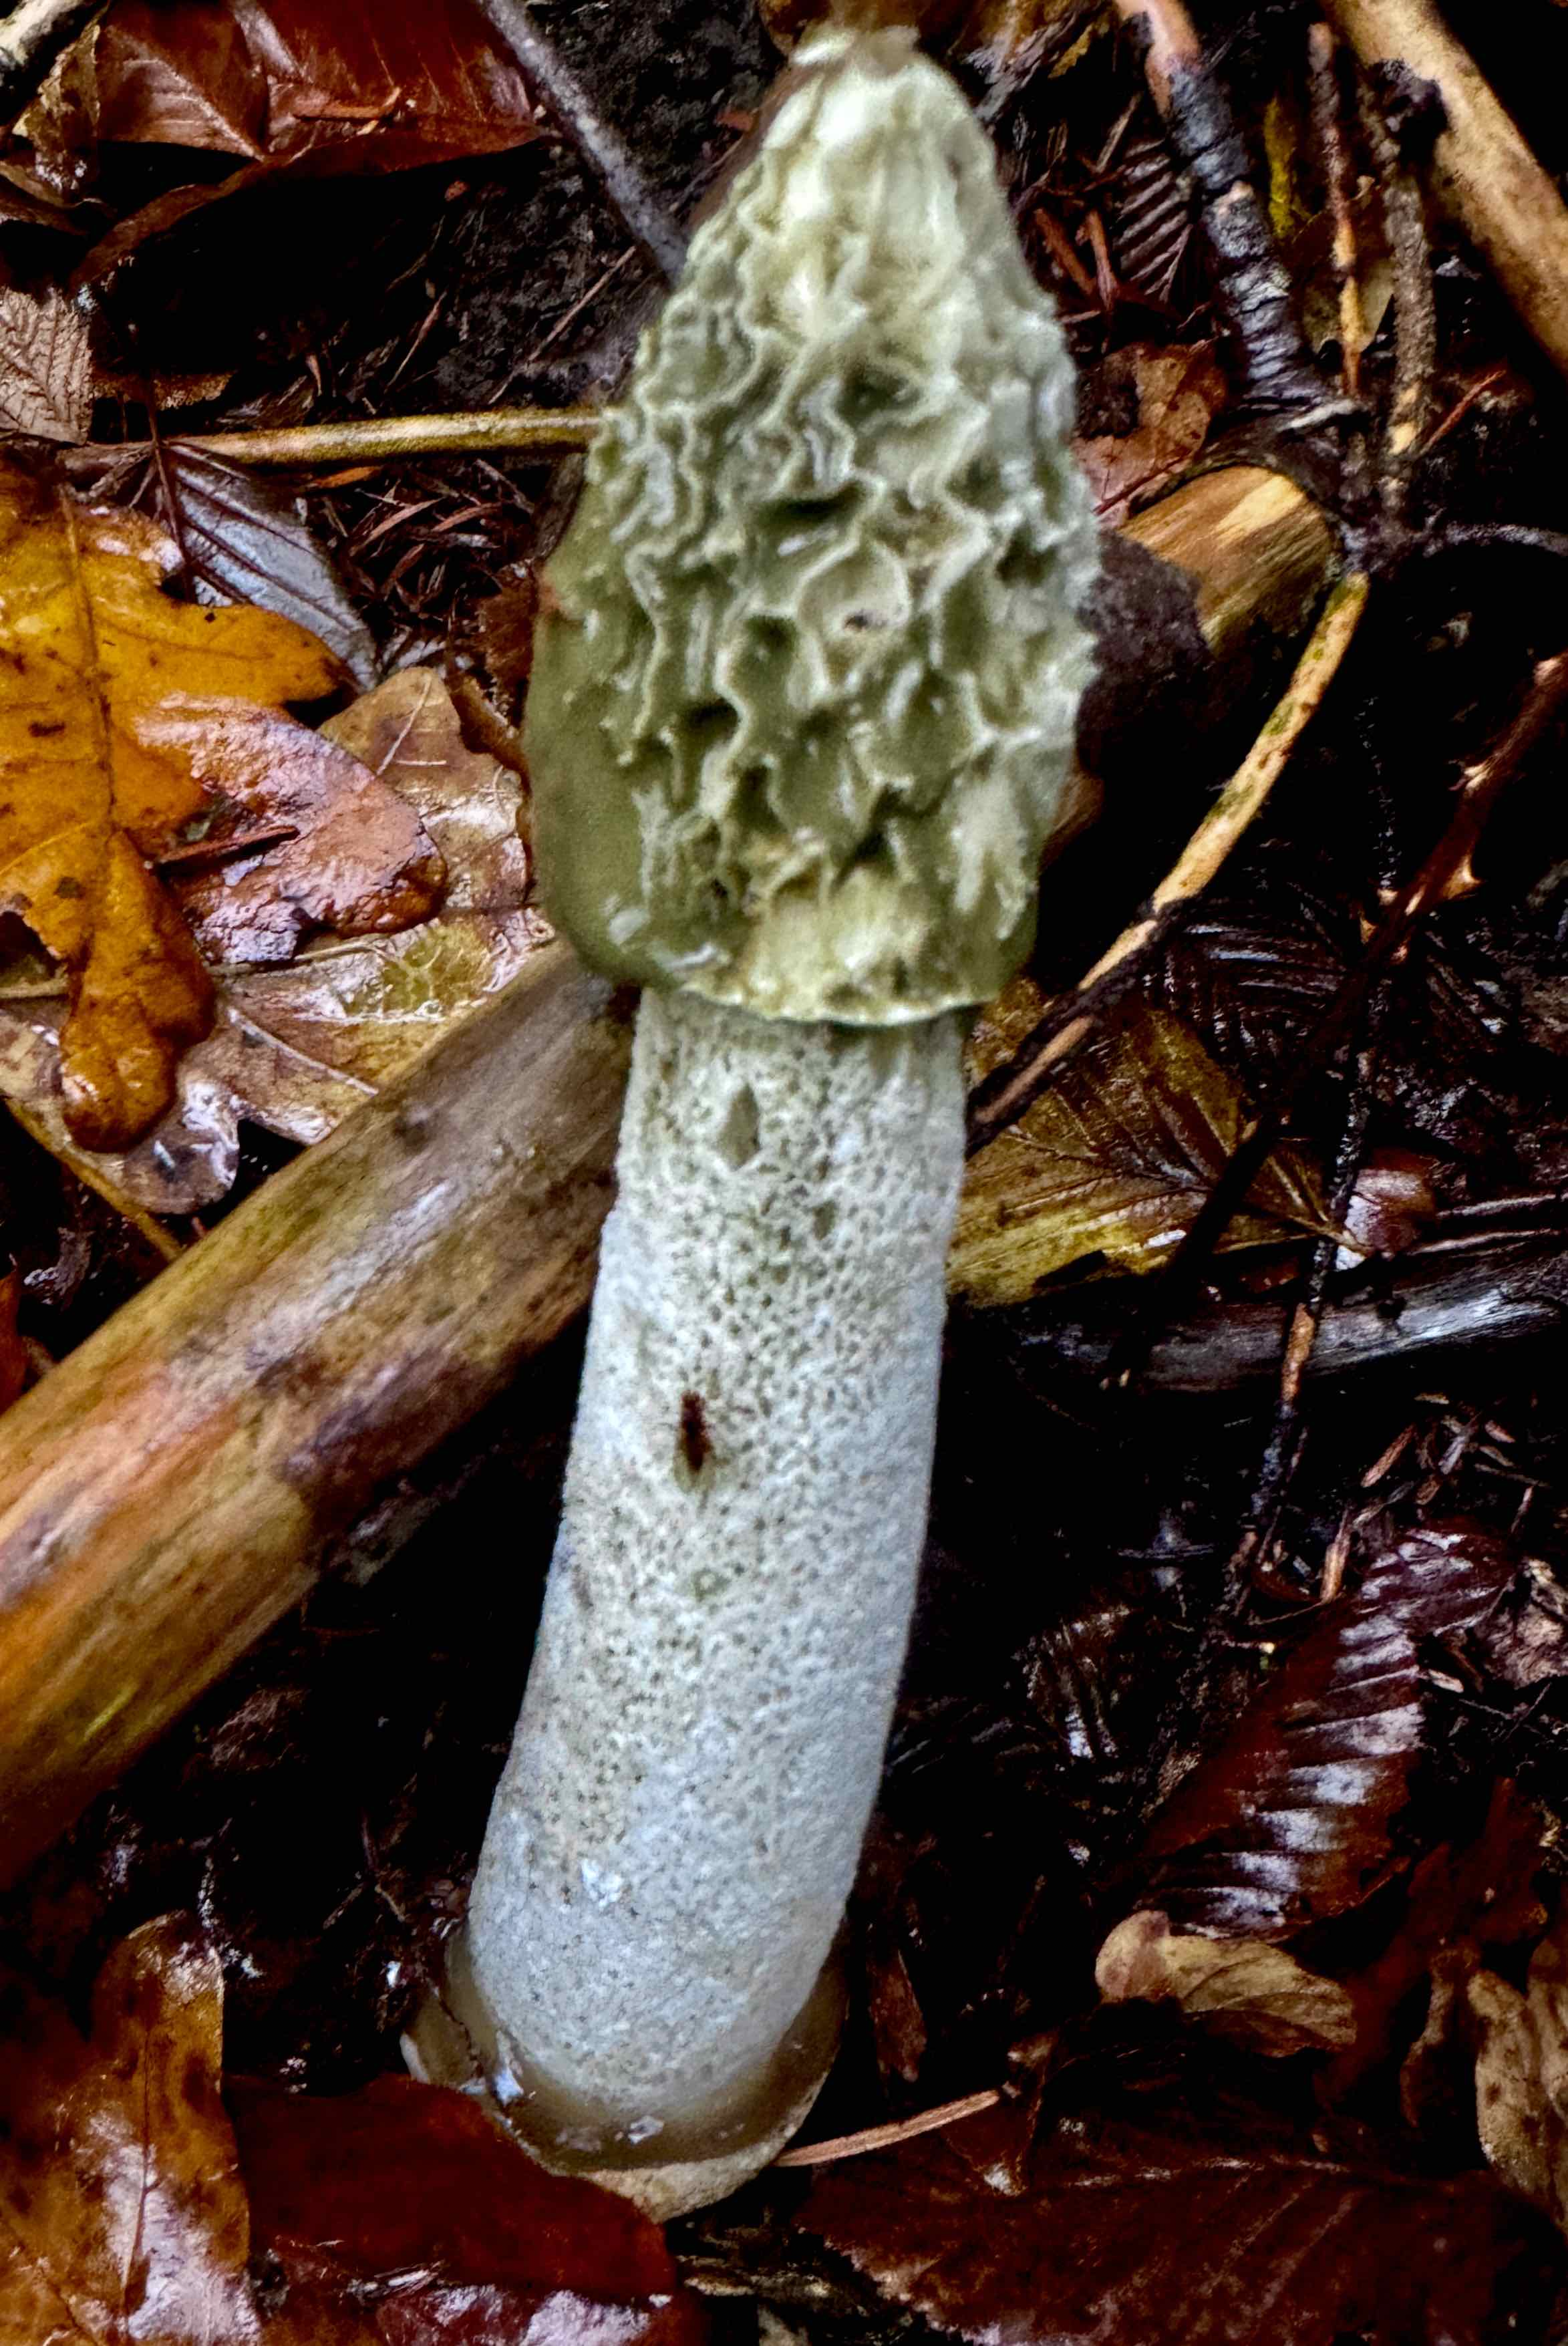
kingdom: Fungi
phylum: Basidiomycota
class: Agaricomycetes
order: Phallales
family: Phallaceae
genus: Phallus
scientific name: Phallus impudicus
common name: almindelig stinksvamp
